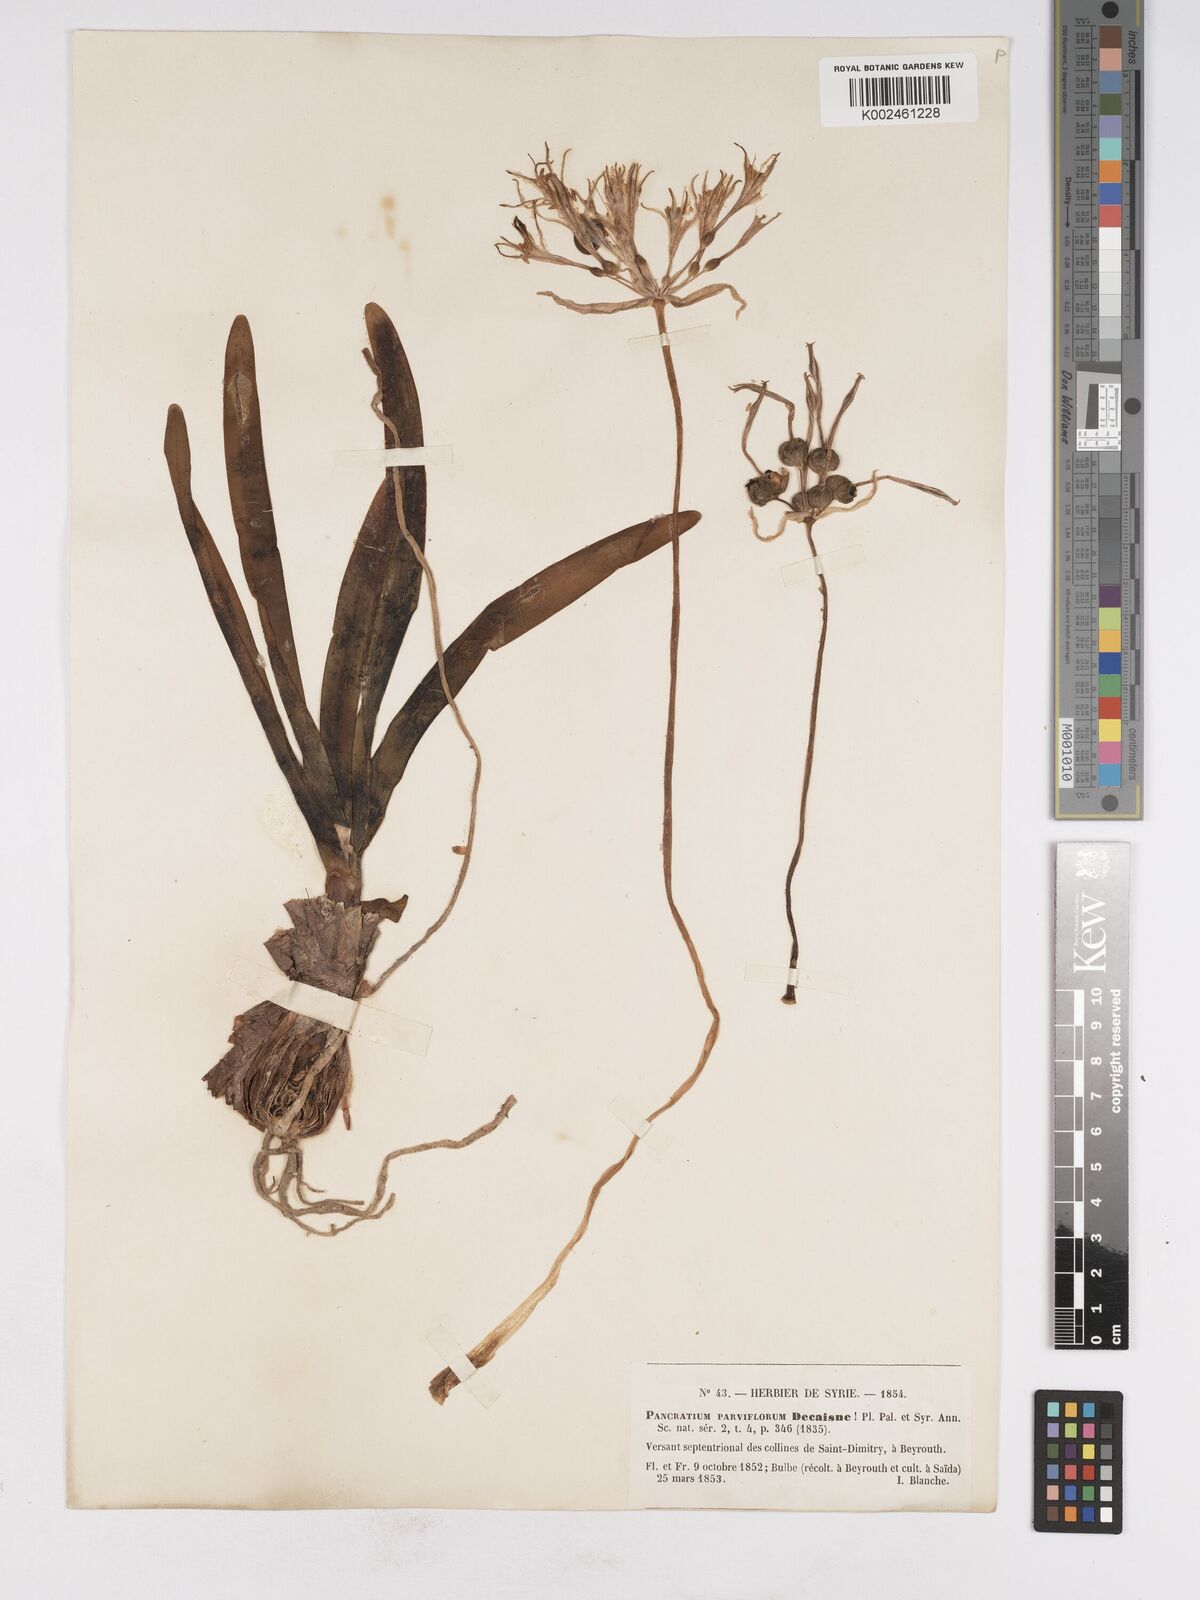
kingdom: Plantae
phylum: Tracheophyta
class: Liliopsida
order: Asparagales
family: Amaryllidaceae
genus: Vagaria
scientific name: Vagaria parviflora
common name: Small-flowered pancratium
